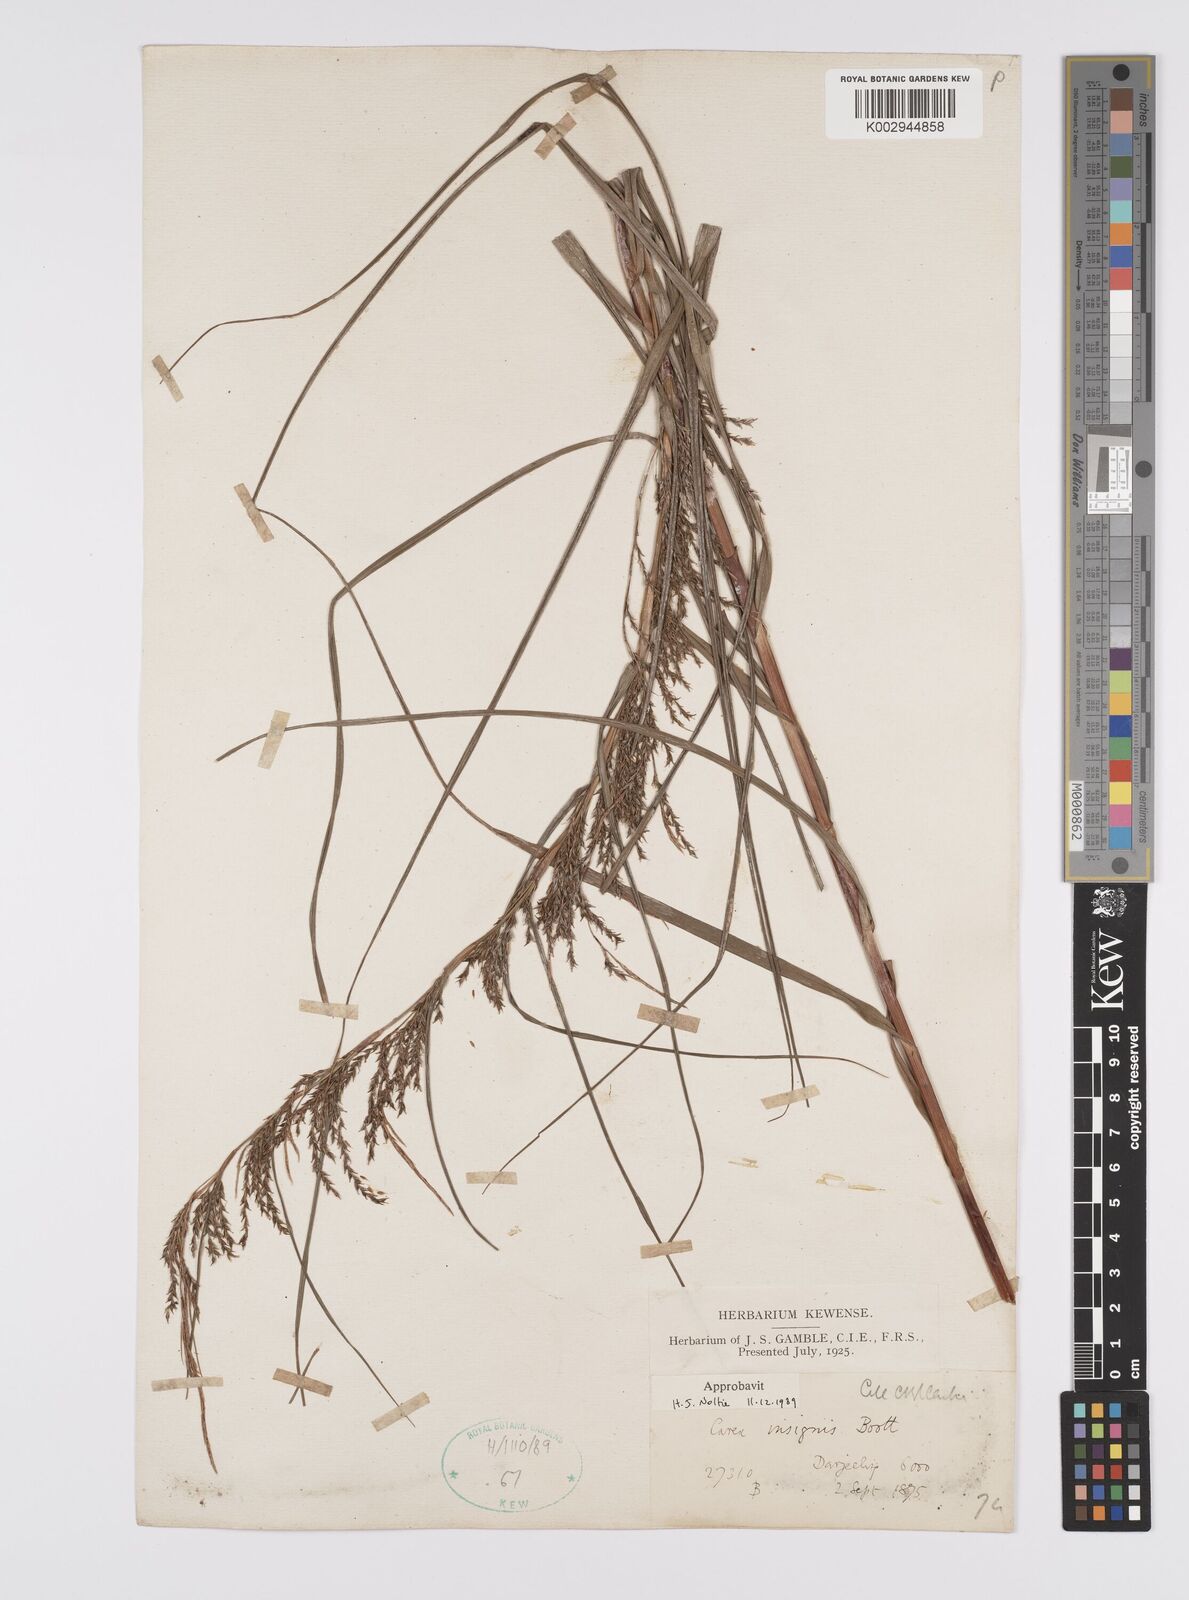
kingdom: Plantae
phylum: Tracheophyta
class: Liliopsida
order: Poales
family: Cyperaceae
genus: Carex
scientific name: Carex insignis
